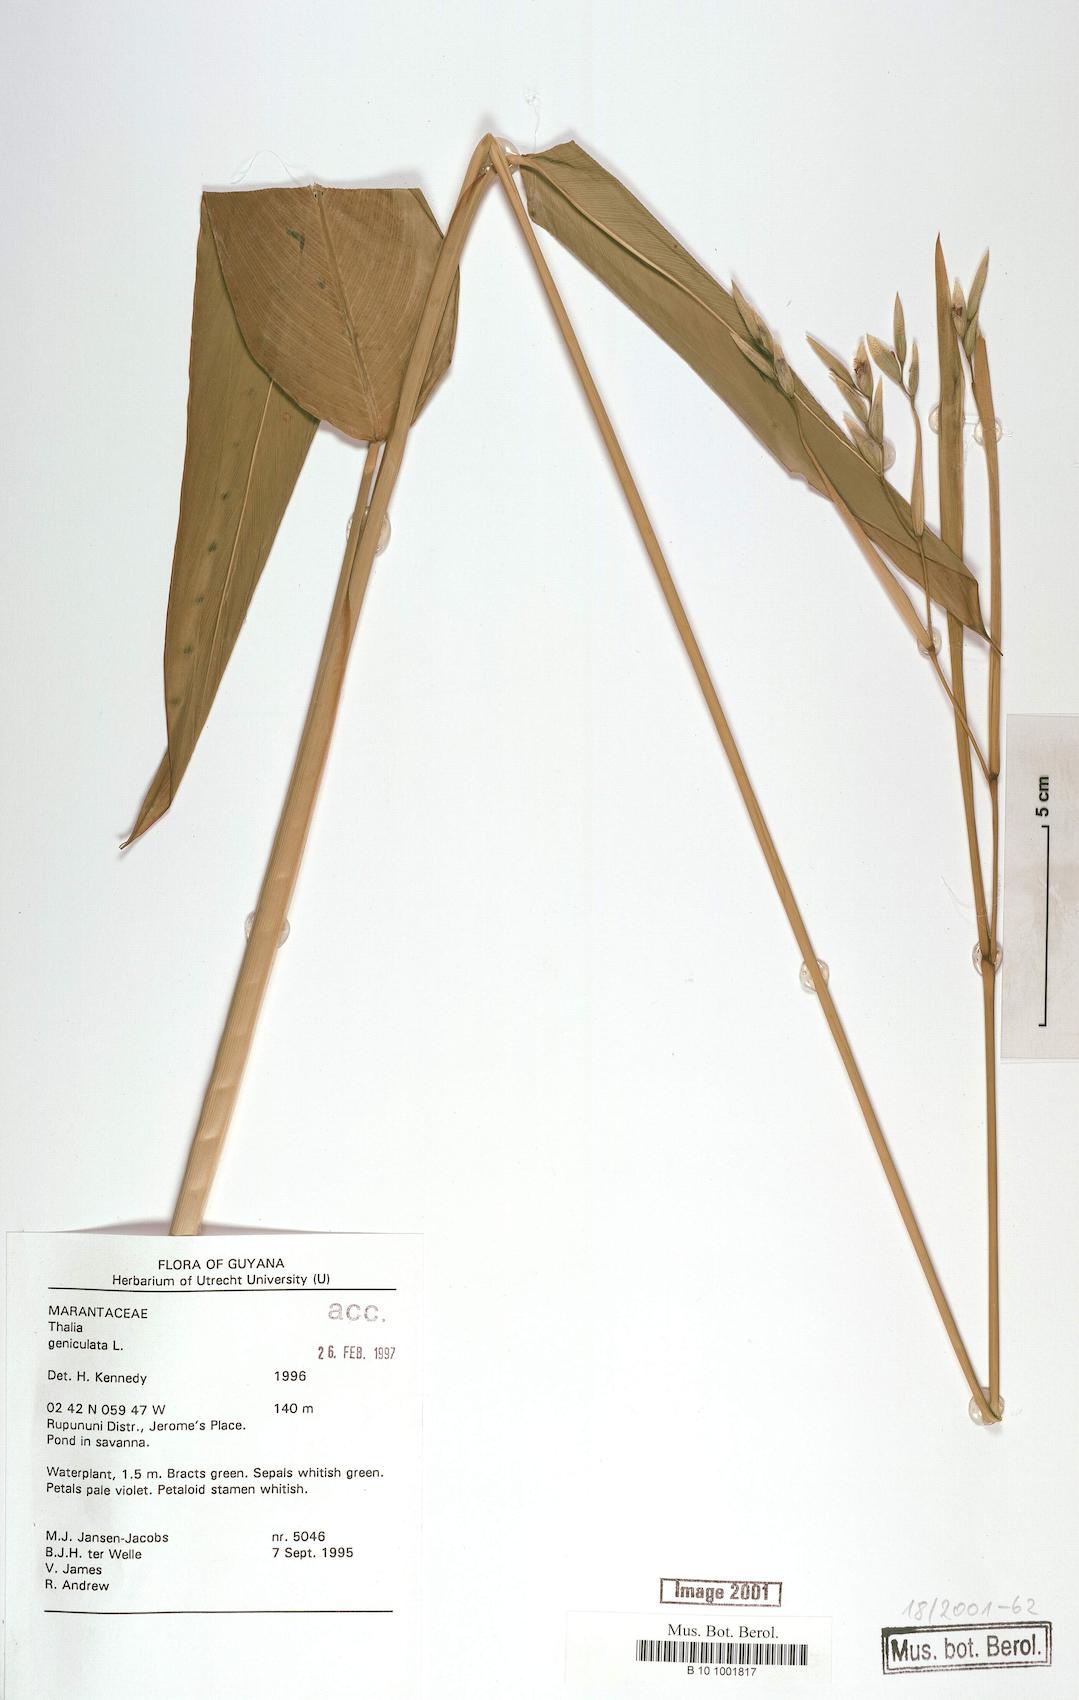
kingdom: Plantae
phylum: Tracheophyta
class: Liliopsida
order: Zingiberales
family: Marantaceae
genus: Thalia
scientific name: Thalia geniculata
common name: Arrowroot
